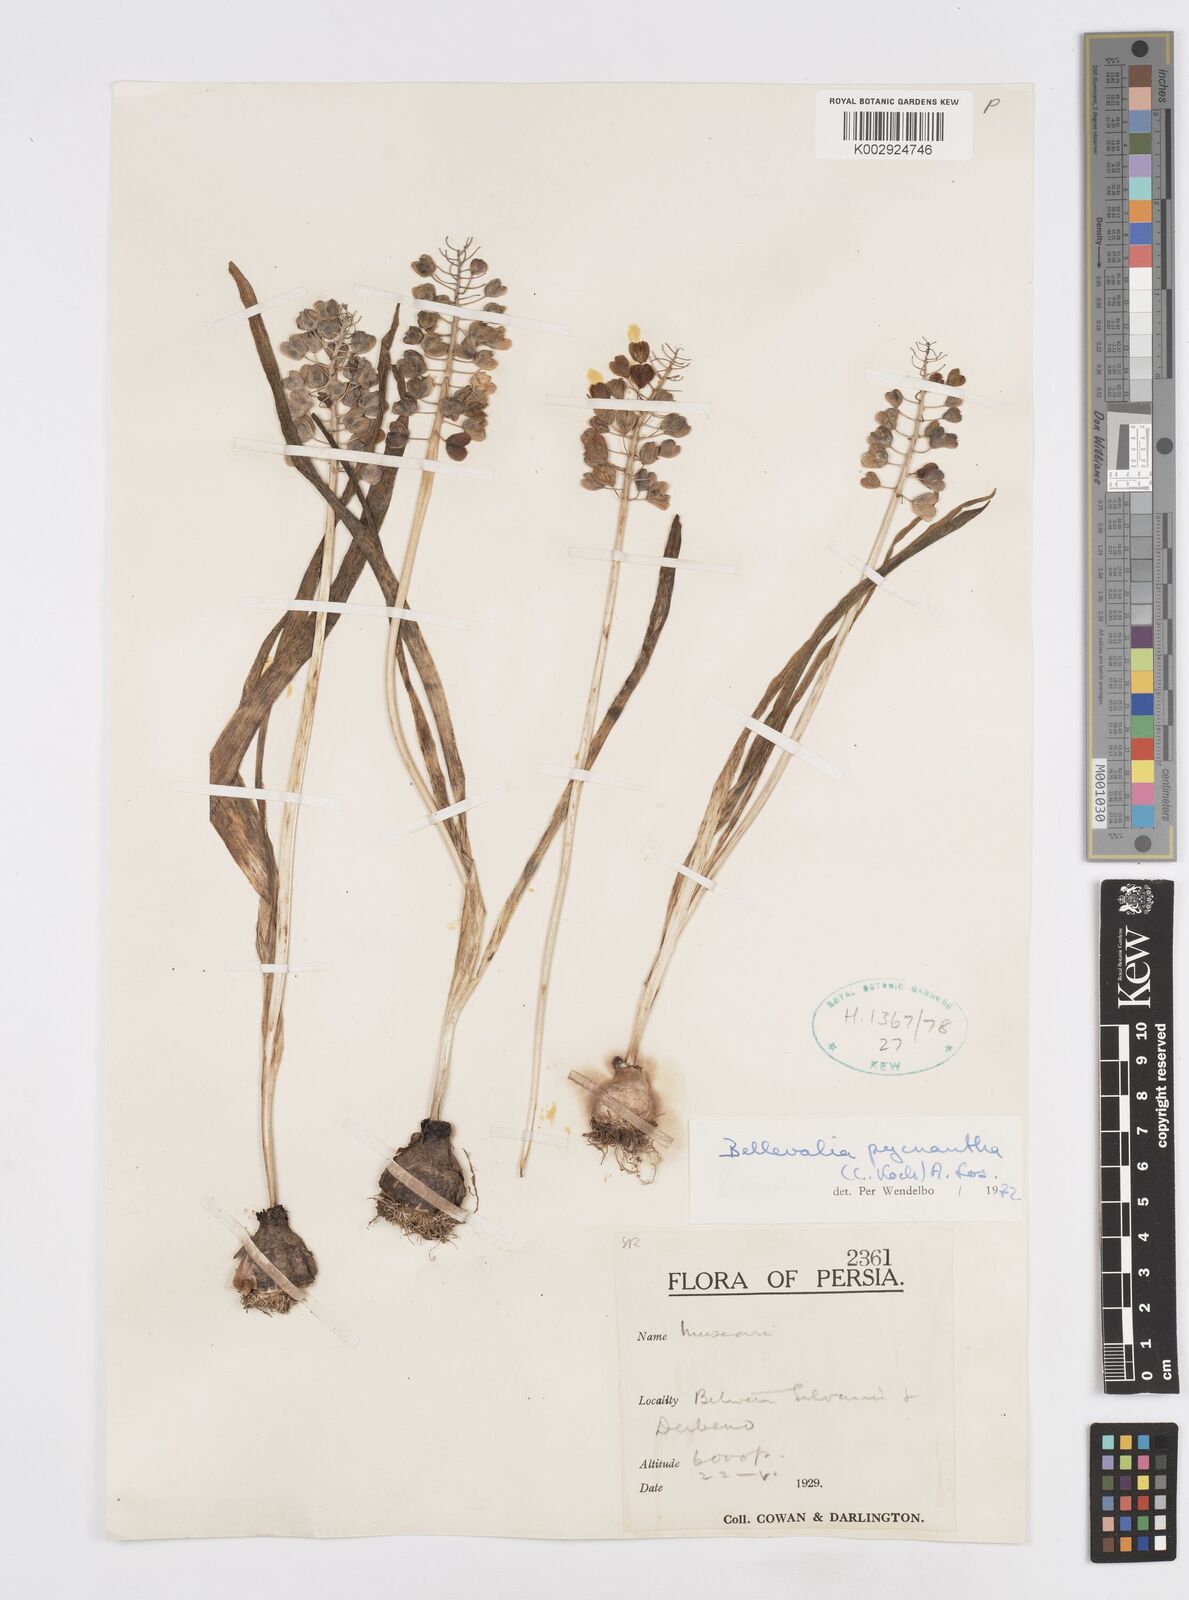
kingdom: Plantae
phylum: Tracheophyta
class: Liliopsida
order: Asparagales
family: Asparagaceae
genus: Bellevalia
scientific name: Bellevalia paradoxa
